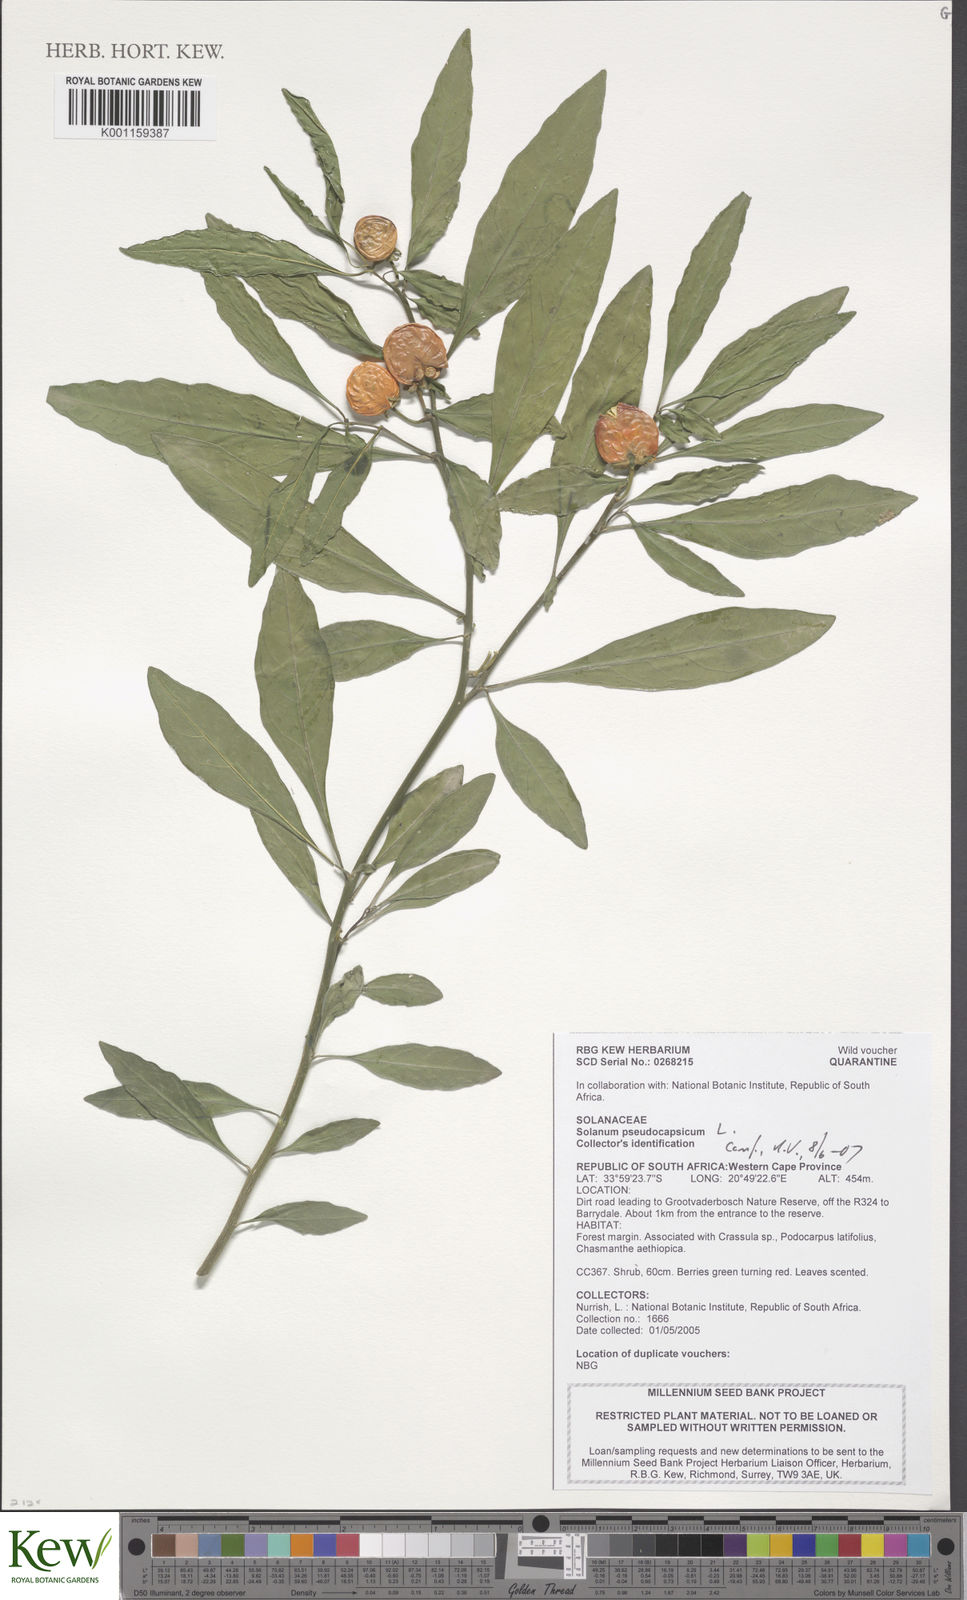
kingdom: Plantae
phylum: Tracheophyta
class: Magnoliopsida
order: Solanales
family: Solanaceae
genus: Solanum
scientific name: Solanum pseudocapsicum
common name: Jerusalem cherry
